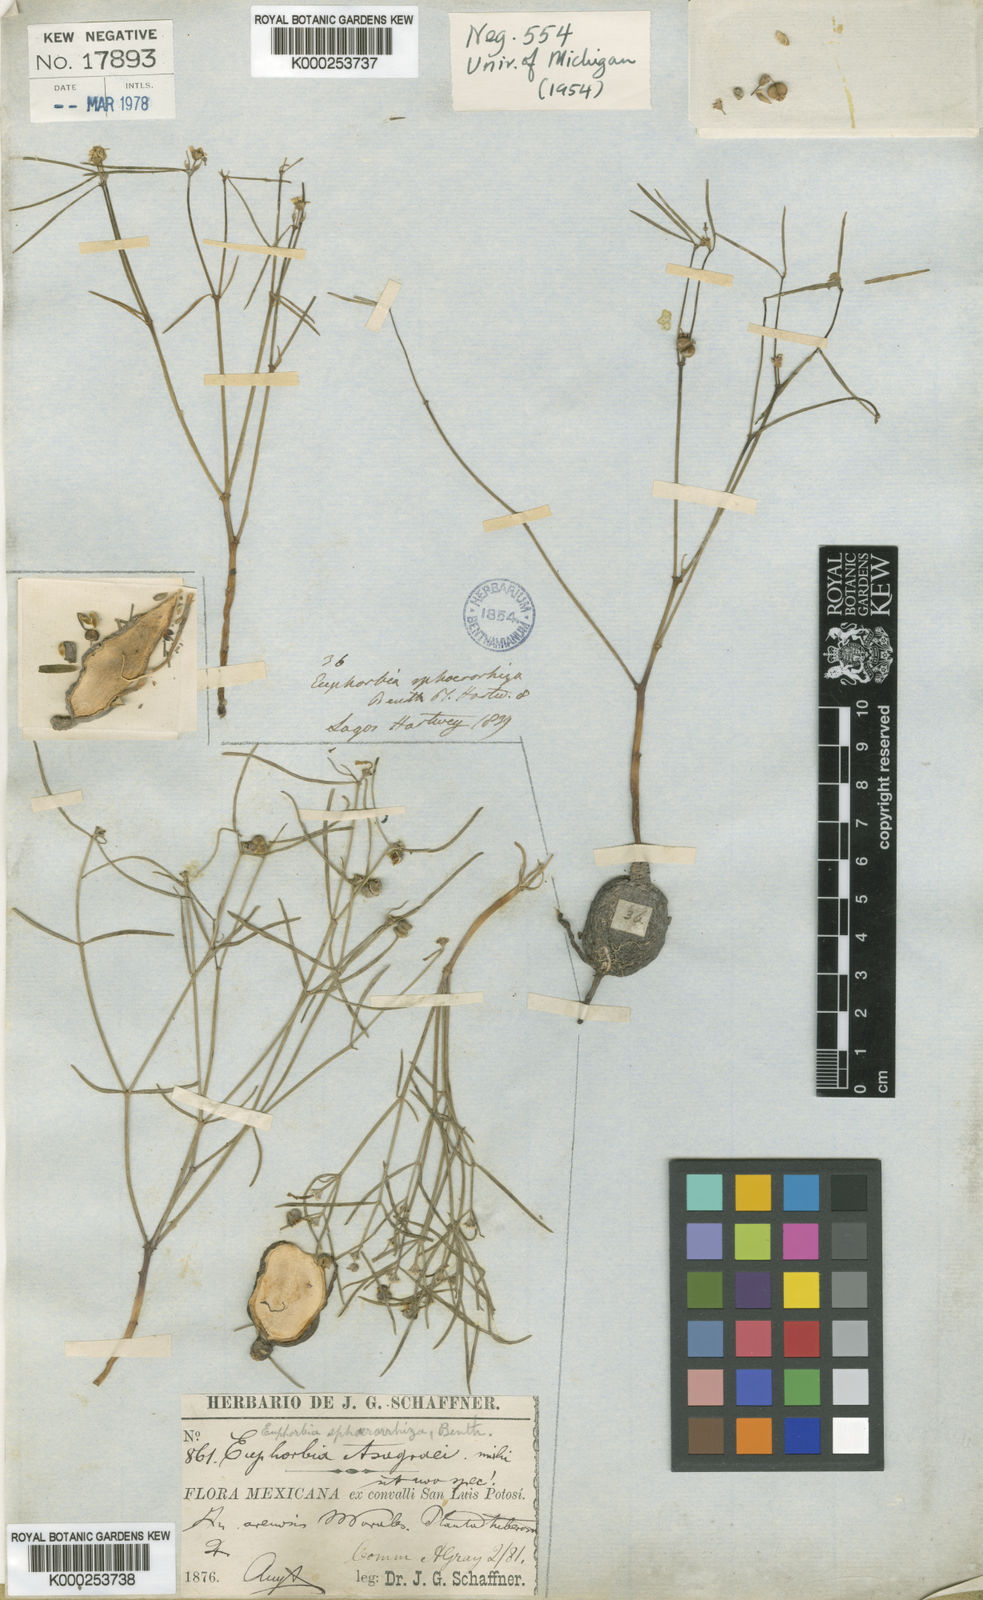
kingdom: Plantae
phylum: Tracheophyta
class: Magnoliopsida
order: Malpighiales
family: Euphorbiaceae
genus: Euphorbia
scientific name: Euphorbia sphaerorhiza
